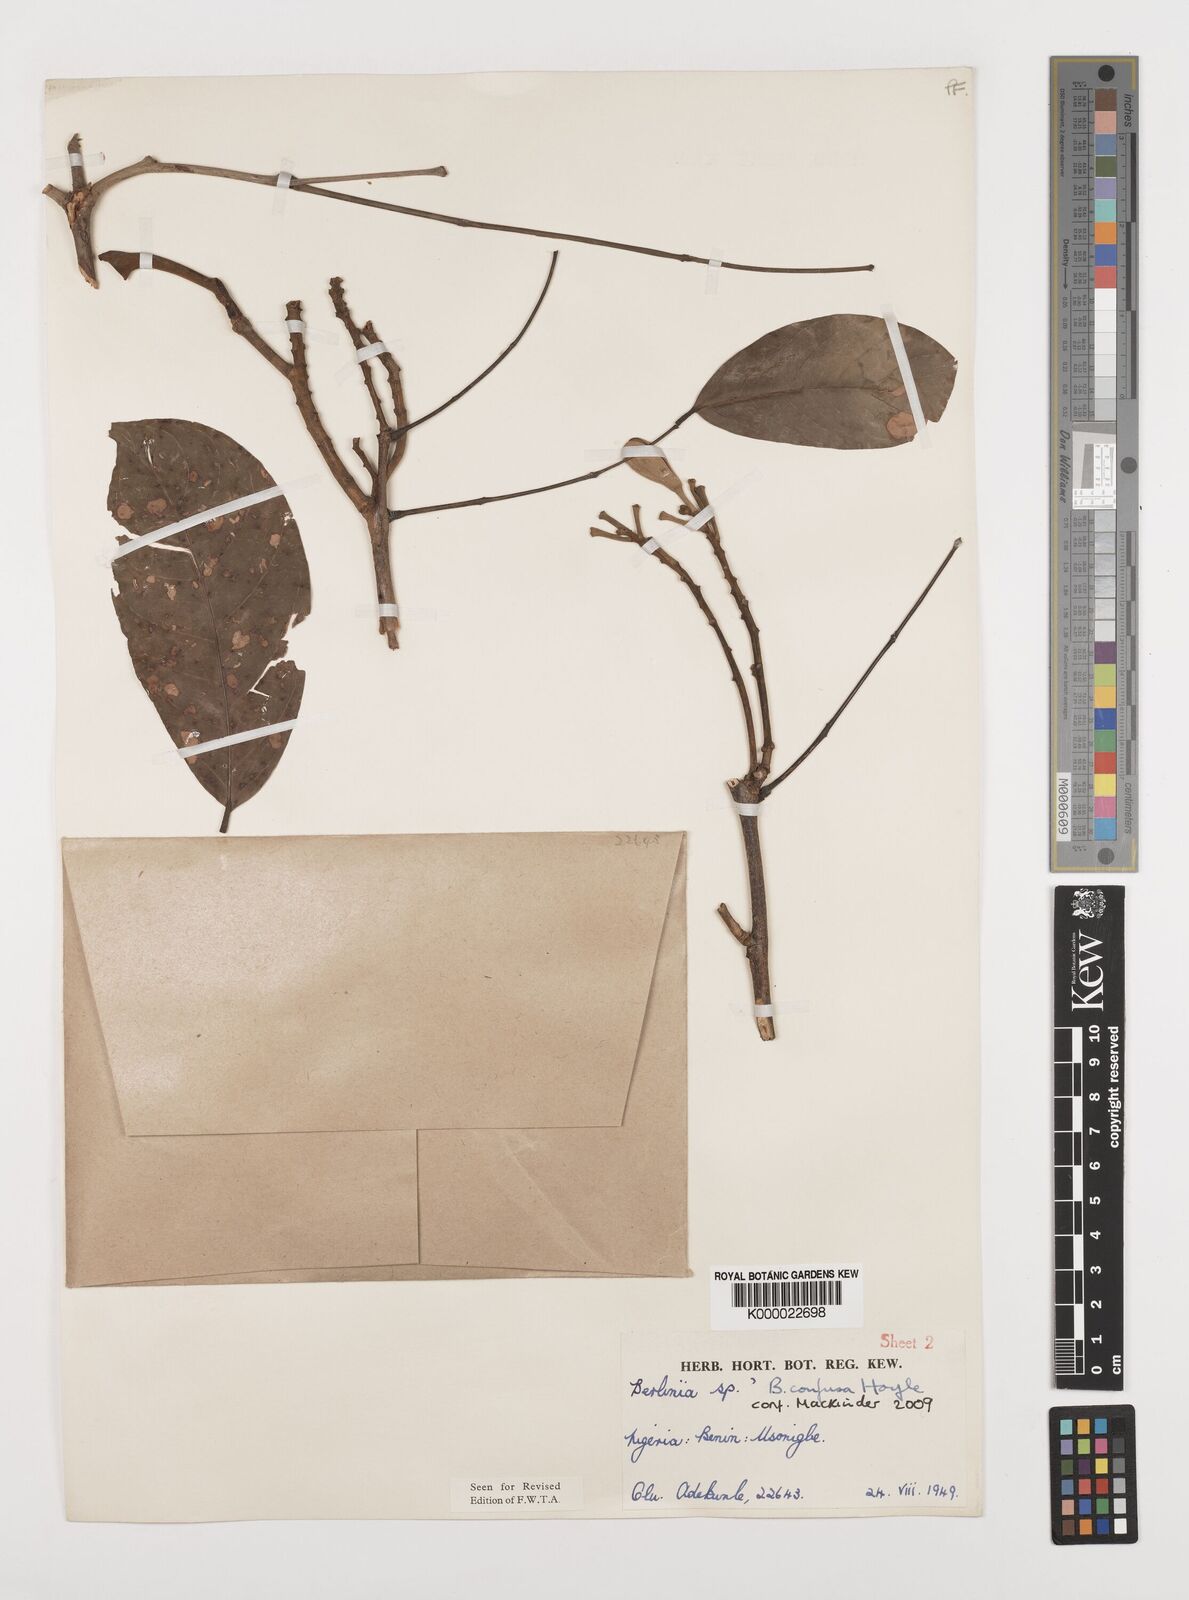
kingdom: Plantae
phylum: Tracheophyta
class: Magnoliopsida
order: Fabales
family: Fabaceae
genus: Berlinia
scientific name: Berlinia confusa
